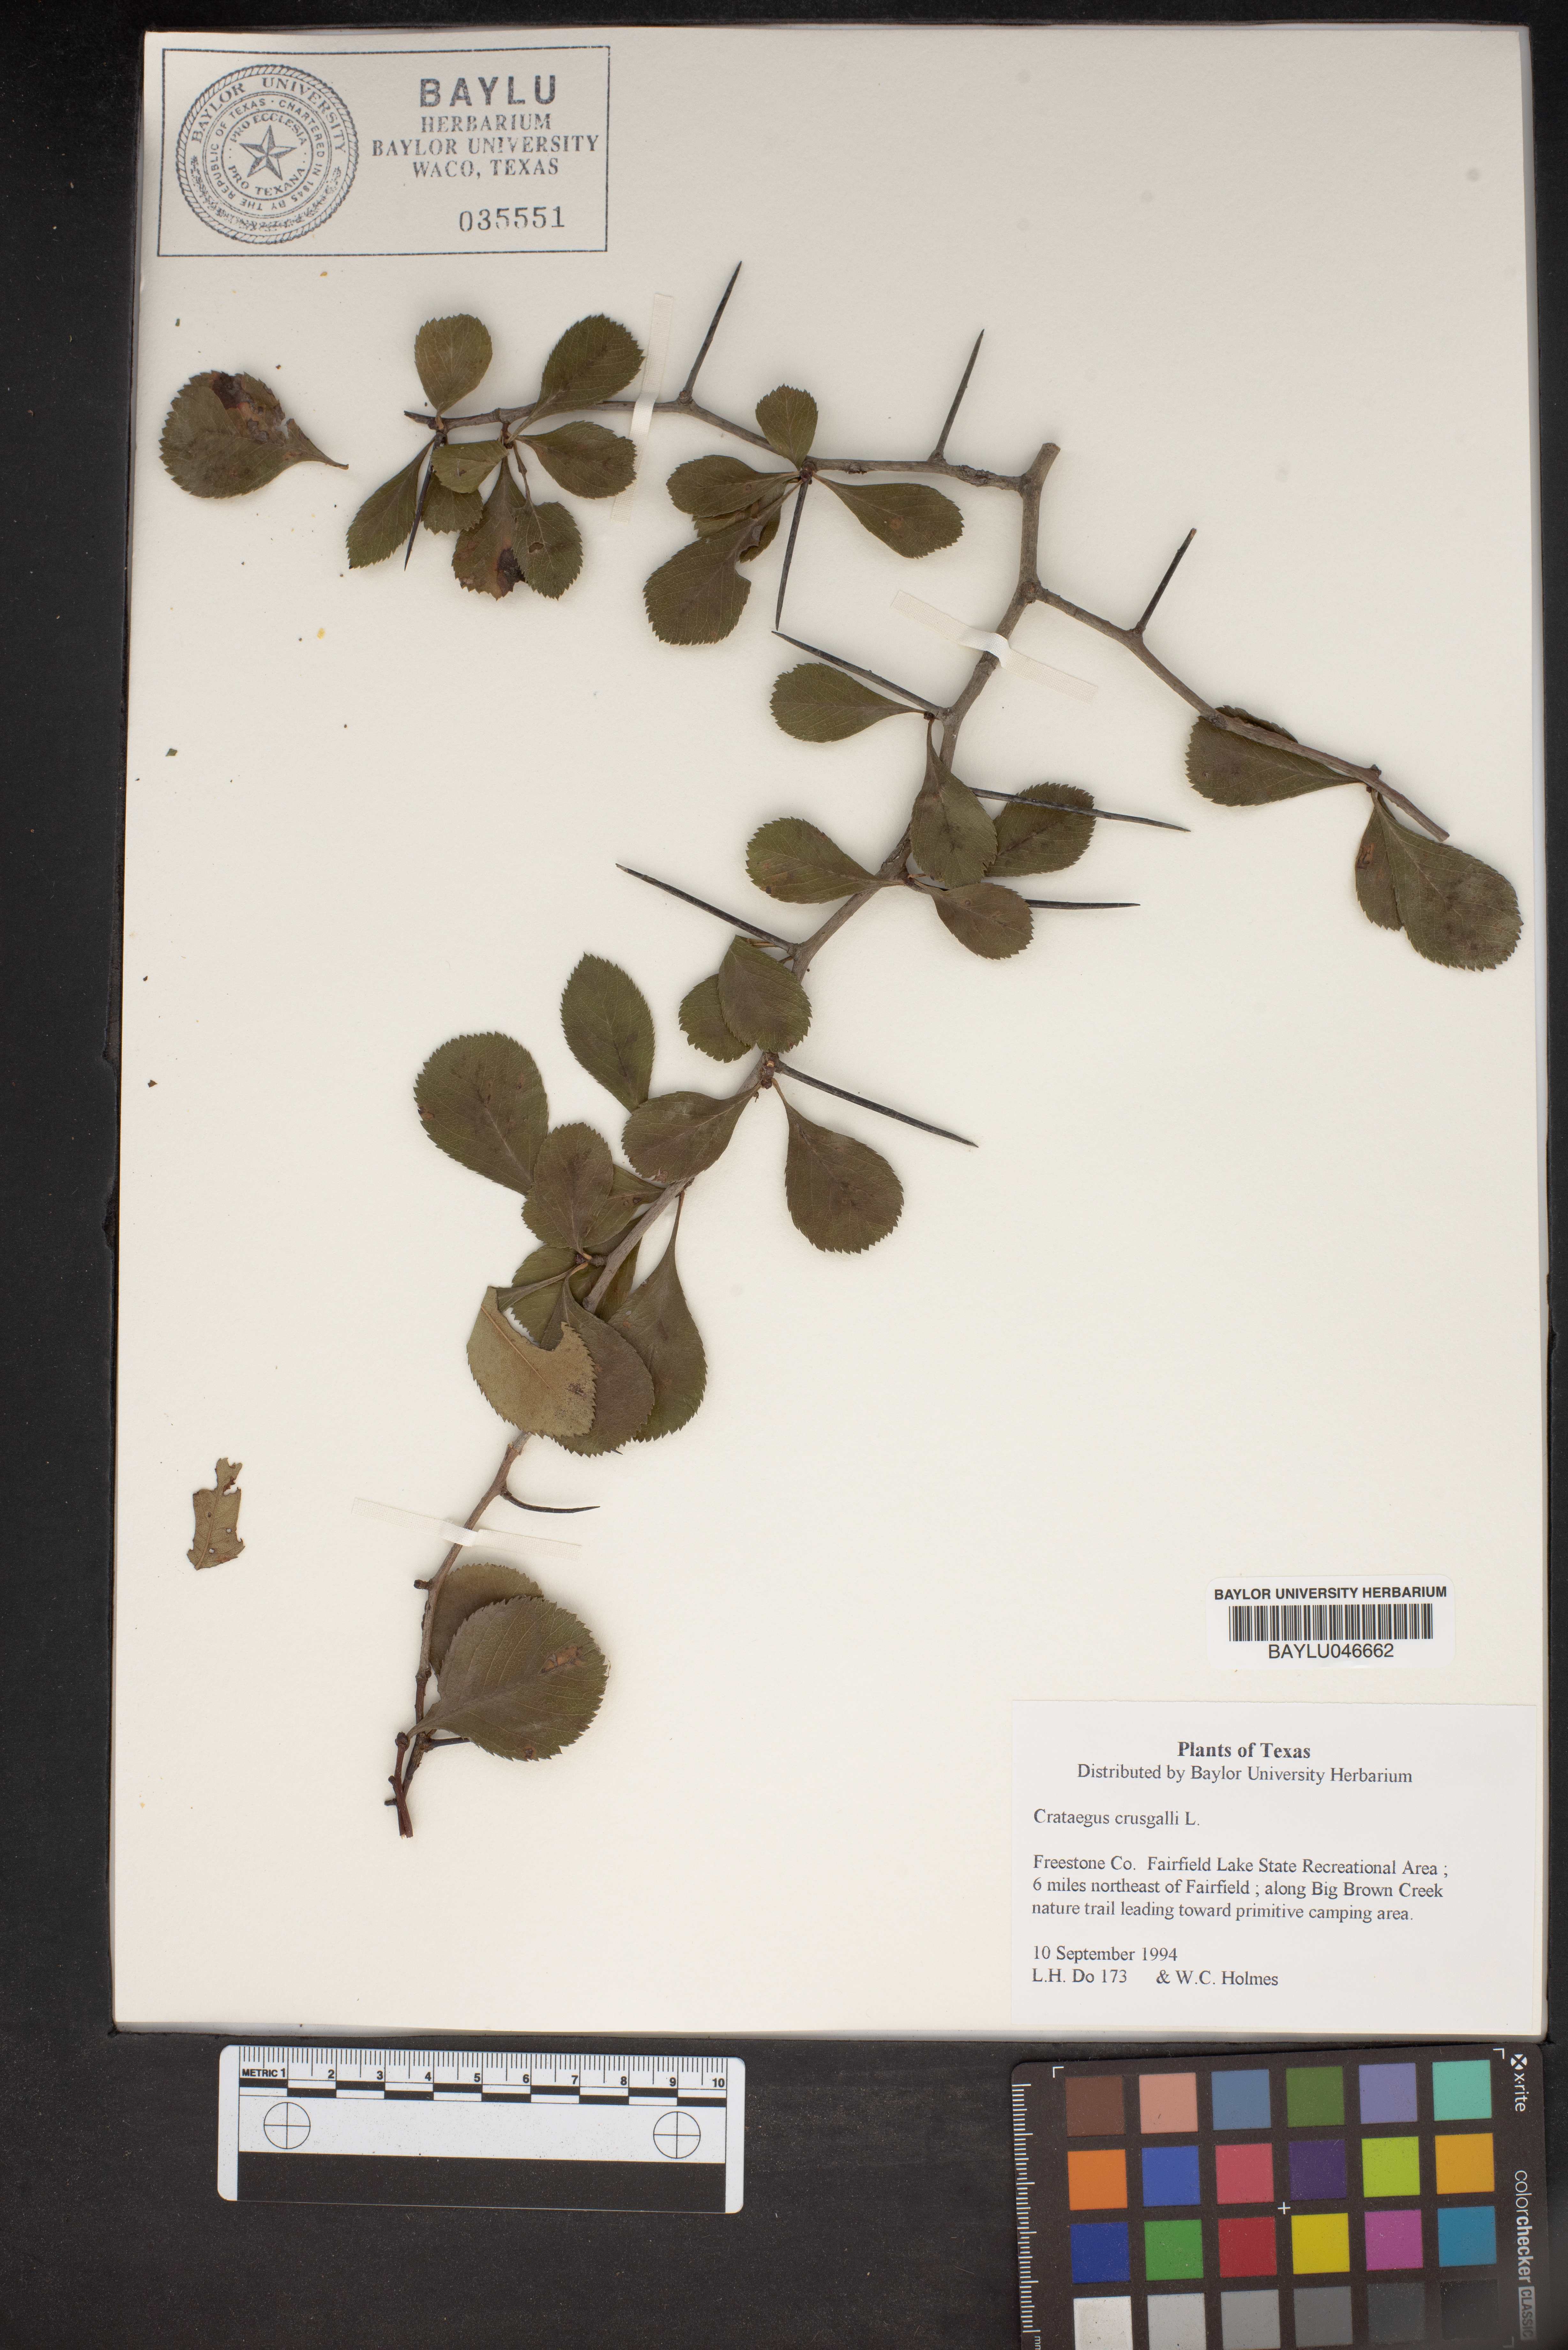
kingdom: Plantae
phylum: Tracheophyta
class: Magnoliopsida
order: Rosales
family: Rosaceae
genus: Crataegus
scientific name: Crataegus crus-galli
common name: Cockspurthorn
